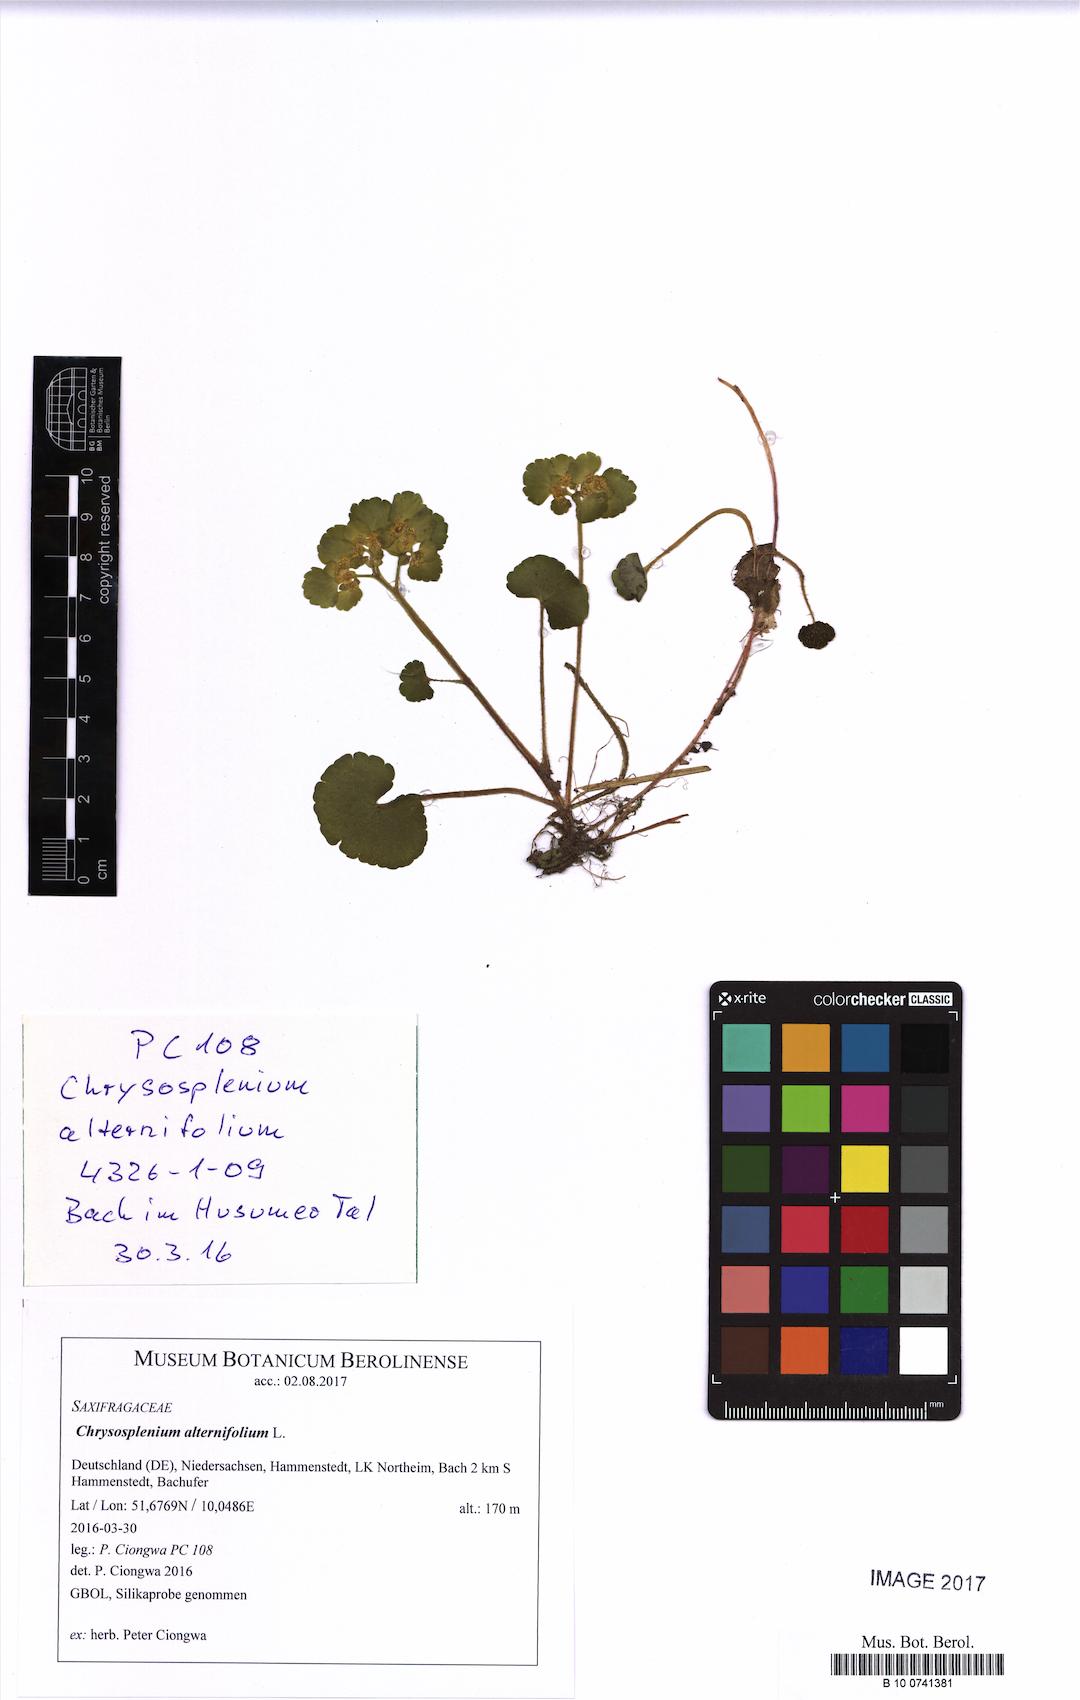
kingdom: Plantae
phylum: Tracheophyta
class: Magnoliopsida
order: Saxifragales
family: Saxifragaceae
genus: Chrysosplenium
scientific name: Chrysosplenium alternifolium
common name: Alternate-leaved golden-saxifrage
